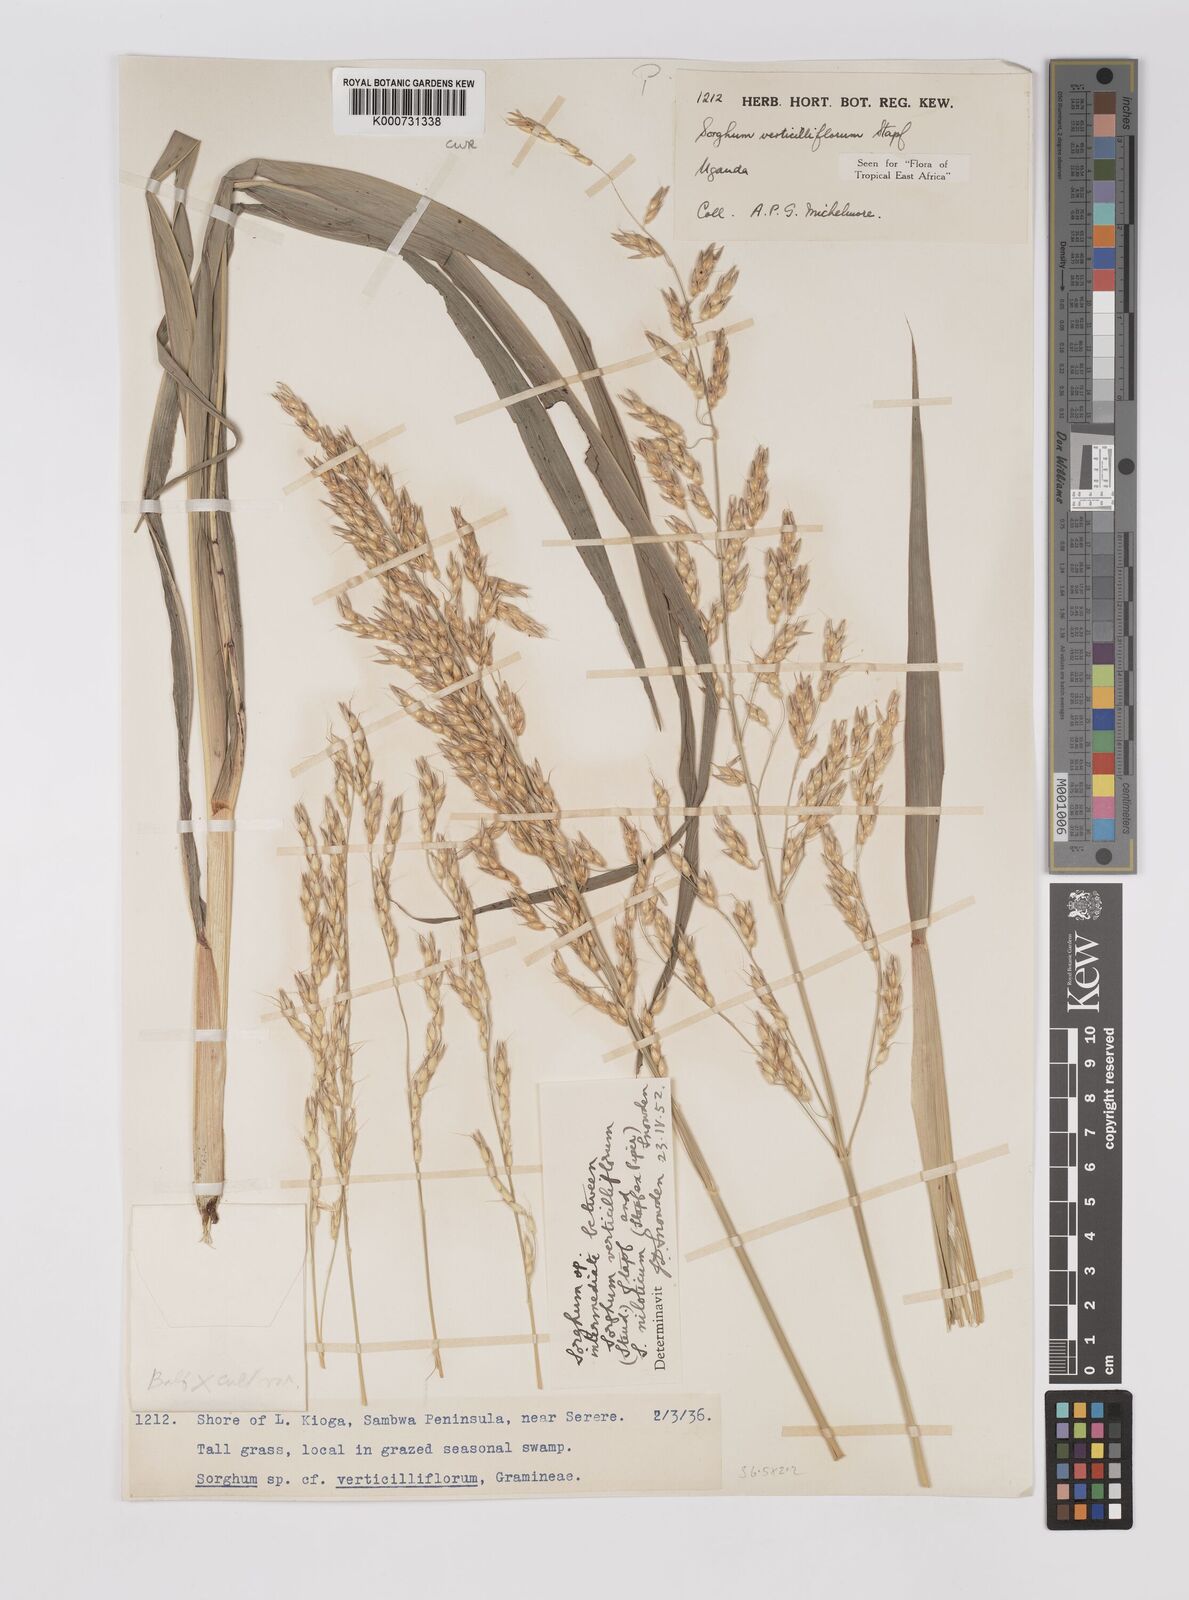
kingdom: Plantae
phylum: Tracheophyta
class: Liliopsida
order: Poales
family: Poaceae
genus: Sorghum
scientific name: Sorghum arundinaceum
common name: Sorghum
